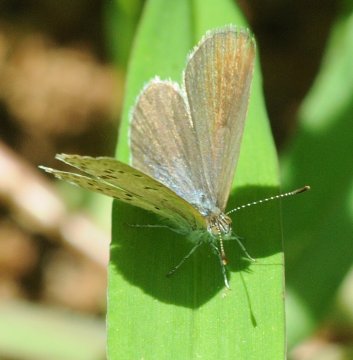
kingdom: Animalia
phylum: Arthropoda
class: Insecta
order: Lepidoptera
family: Lycaenidae
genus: Zizeeria
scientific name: Zizeeria knysna
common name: Dark Grass Blue
